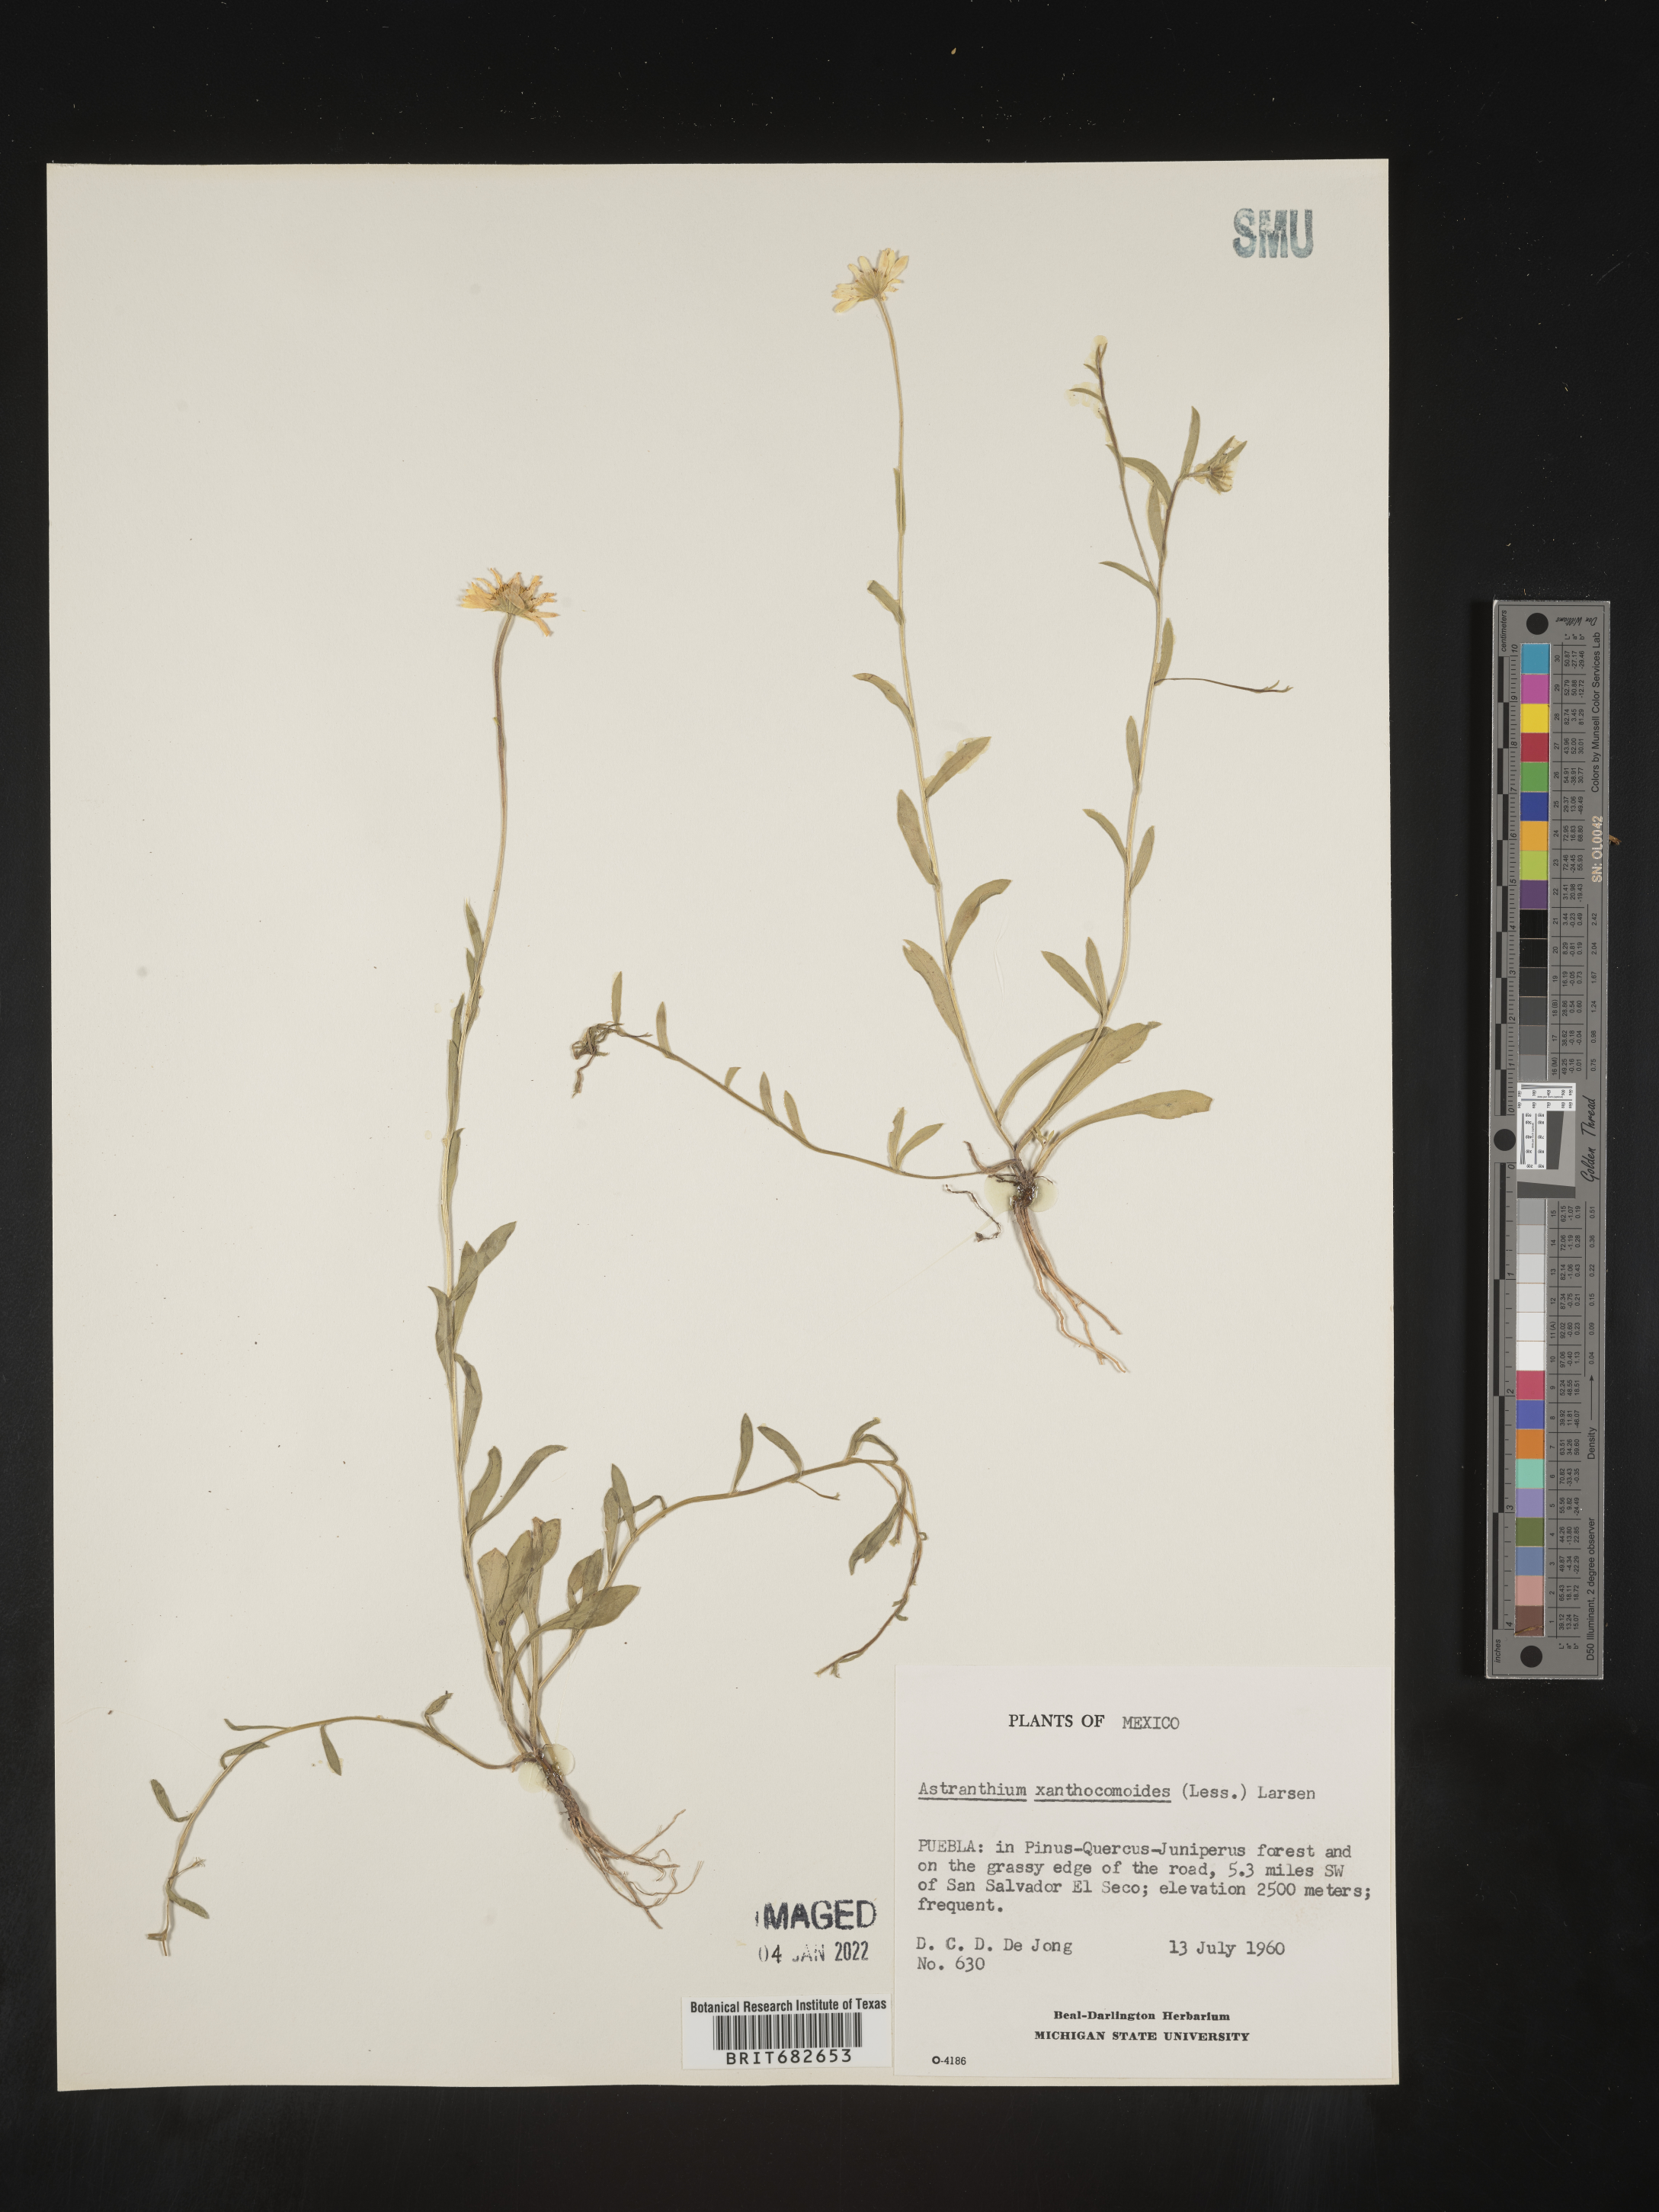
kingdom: Plantae
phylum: Tracheophyta
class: Magnoliopsida
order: Asterales
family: Asteraceae
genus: Astranthium
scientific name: Astranthium
